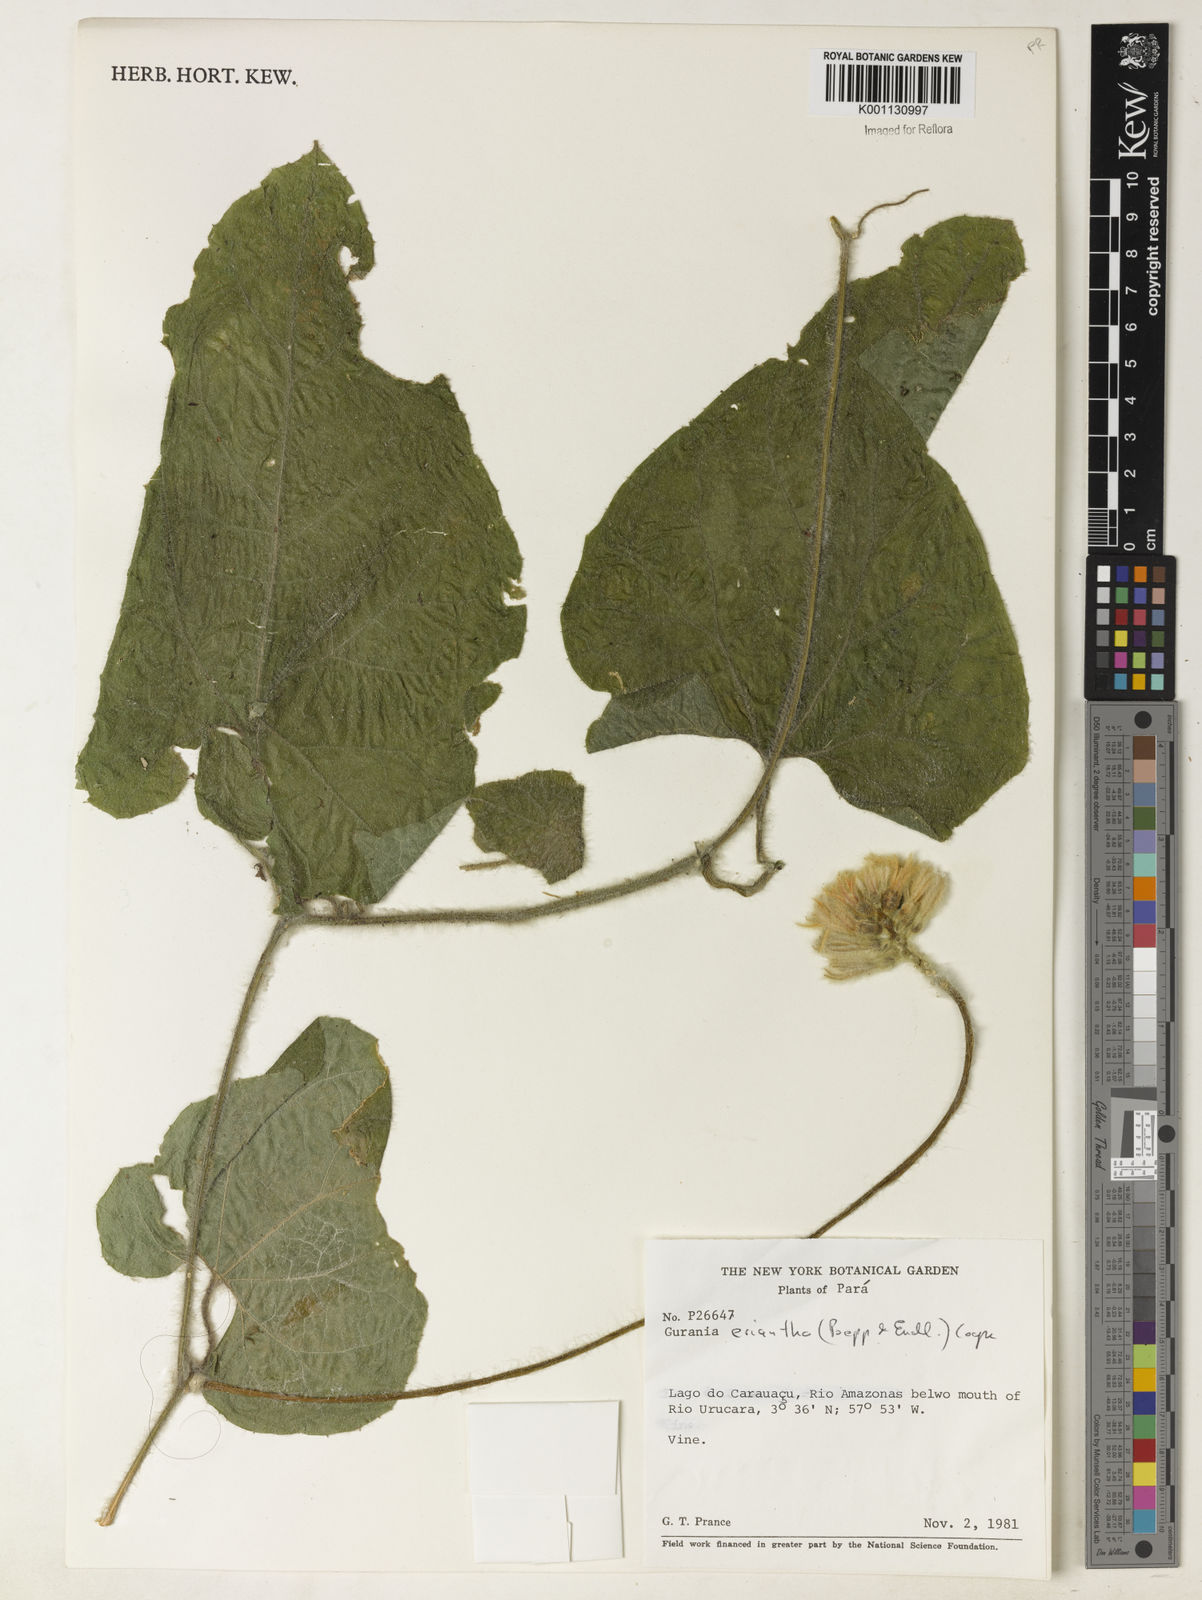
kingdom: Plantae
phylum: Tracheophyta
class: Magnoliopsida
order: Cucurbitales
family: Cucurbitaceae
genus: Gurania
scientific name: Gurania eriantha
